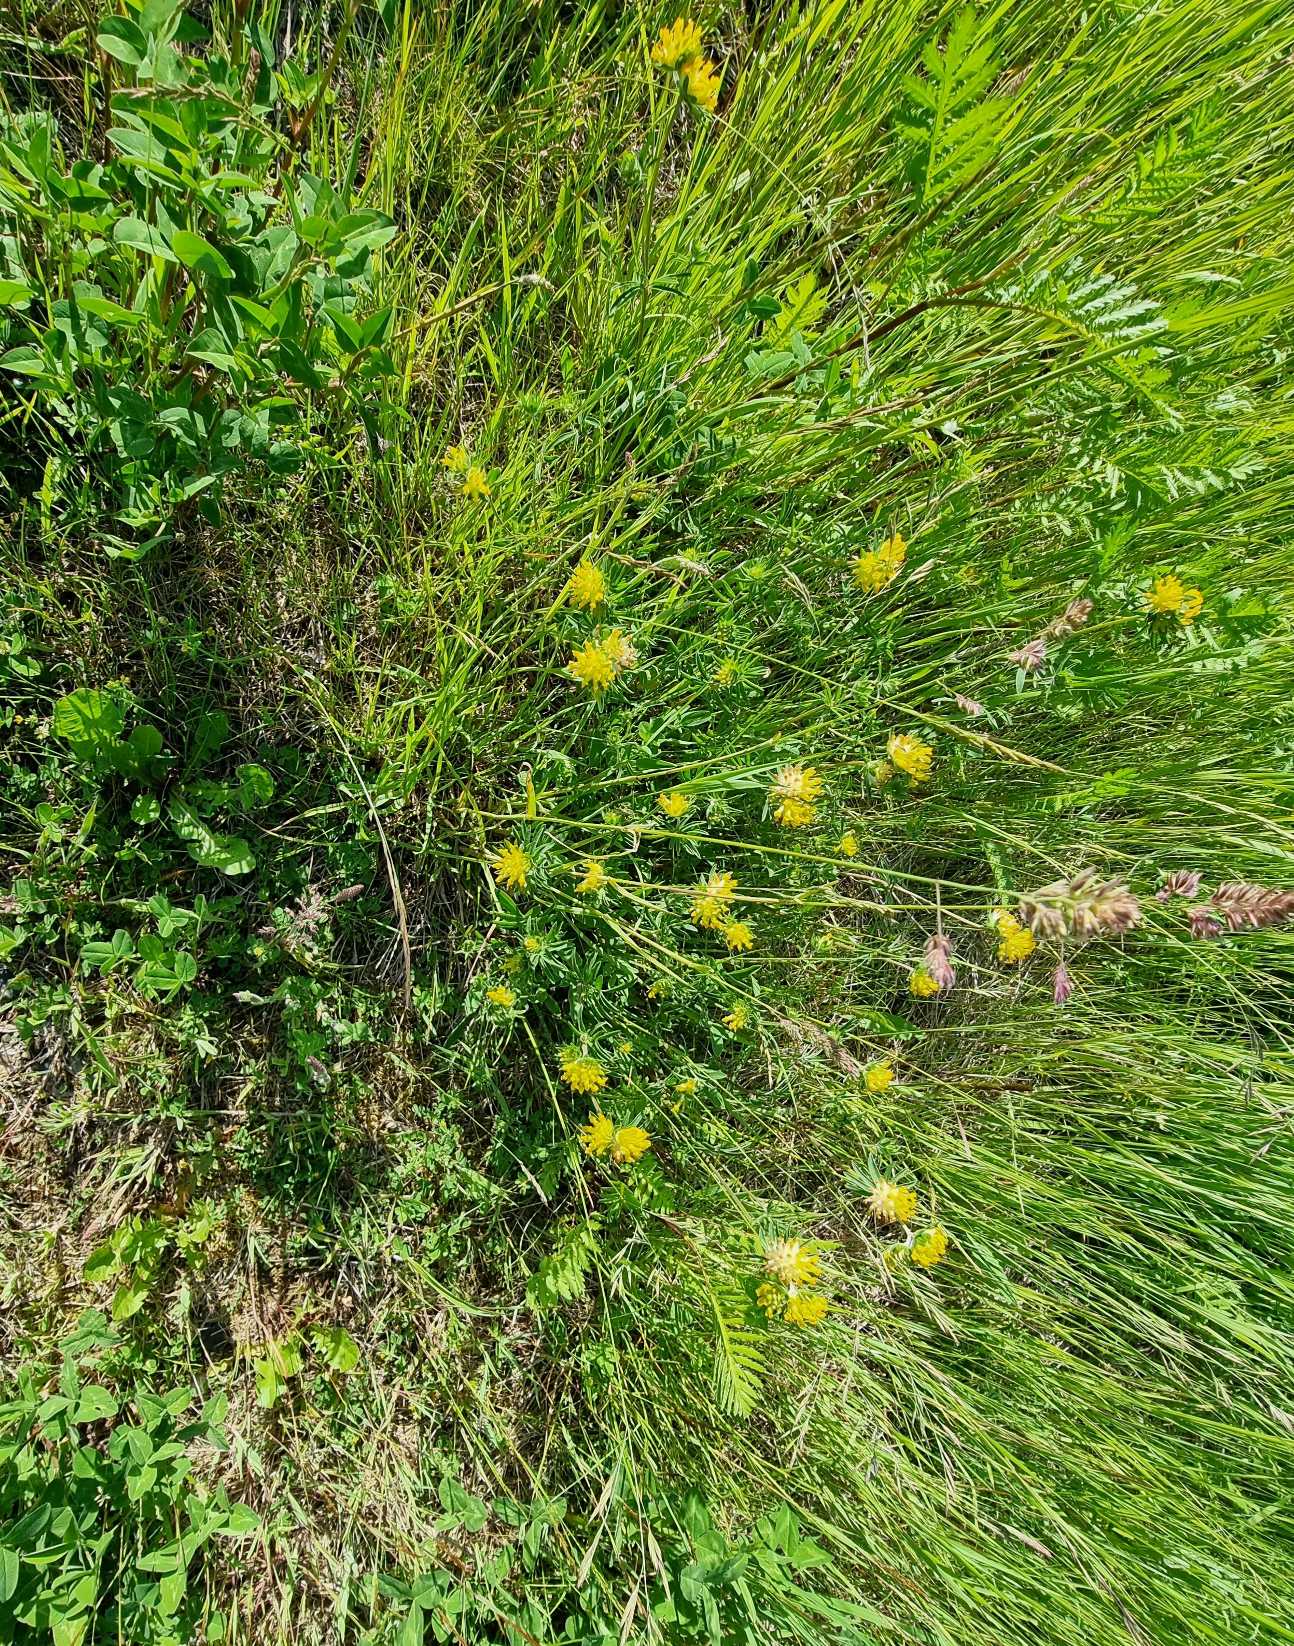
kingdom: Plantae
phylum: Tracheophyta
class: Magnoliopsida
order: Fabales
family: Fabaceae
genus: Anthyllis
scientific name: Anthyllis vulneraria
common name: Rundbælg
